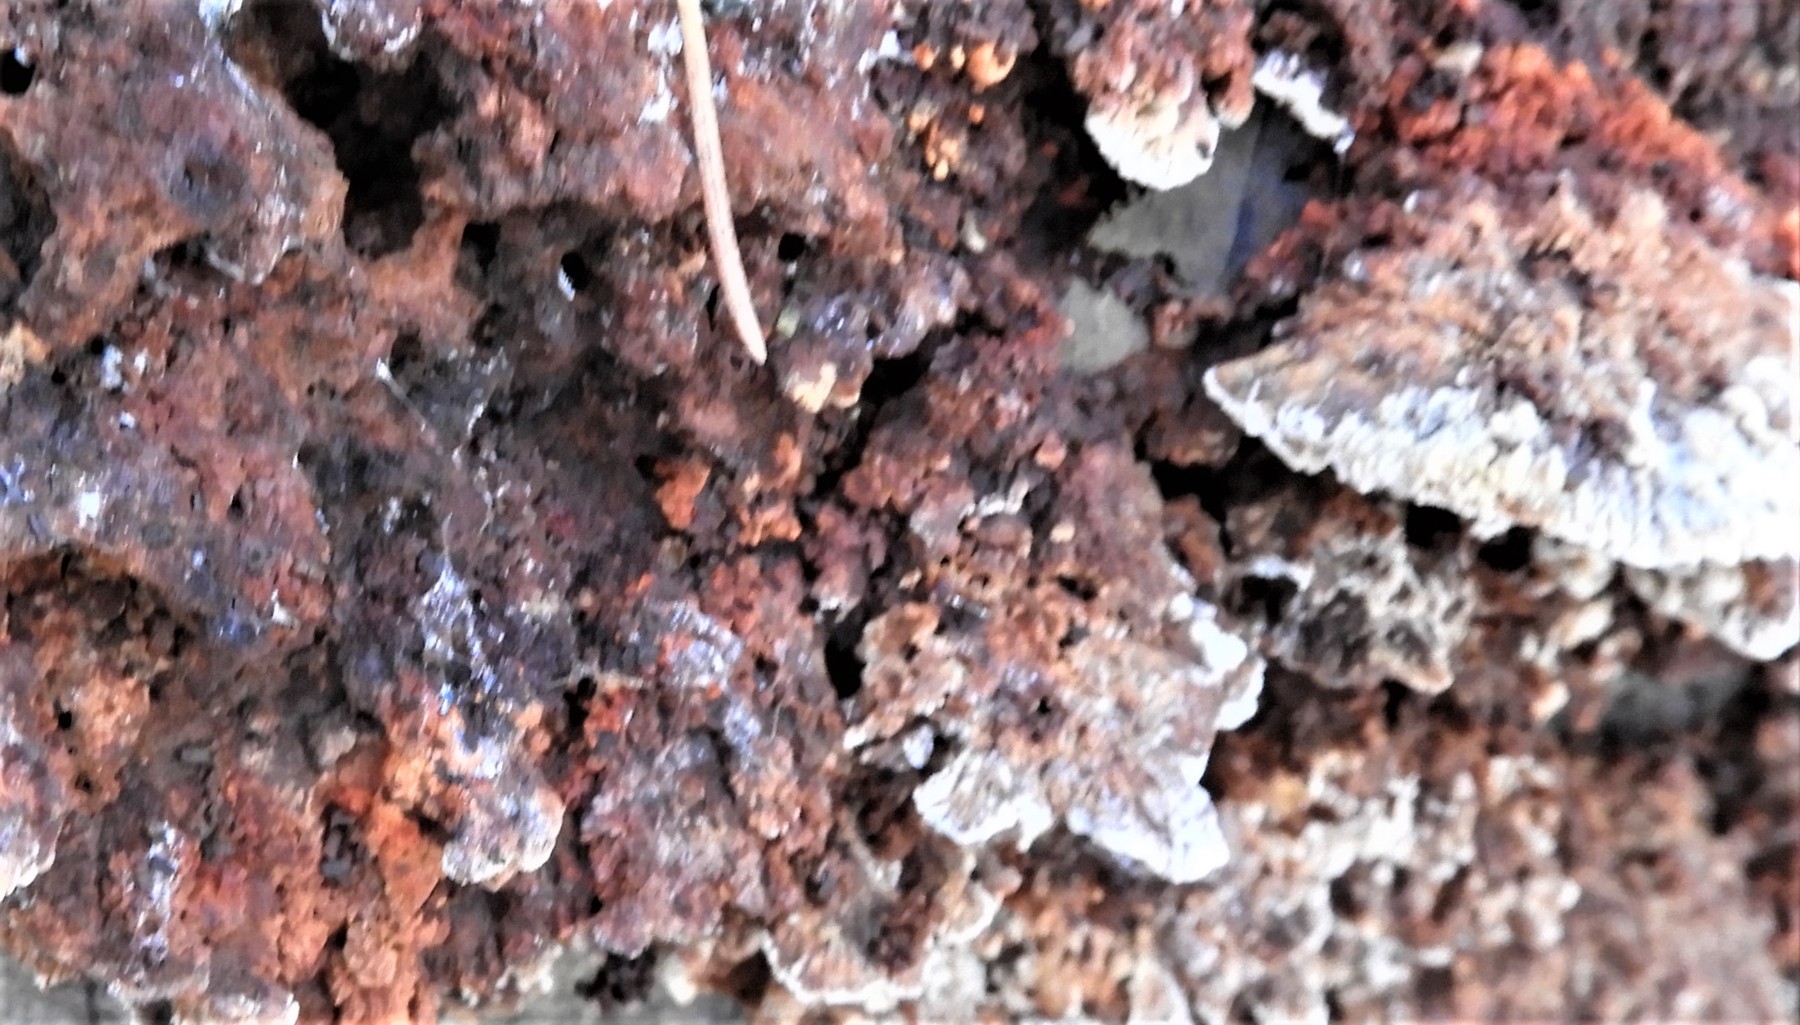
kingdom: Fungi
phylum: Basidiomycota
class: Agaricomycetes
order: Hymenochaetales
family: Hymenochaetaceae
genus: Mensularia
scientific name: Mensularia nodulosa
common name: bøge-spejlporesvamp
